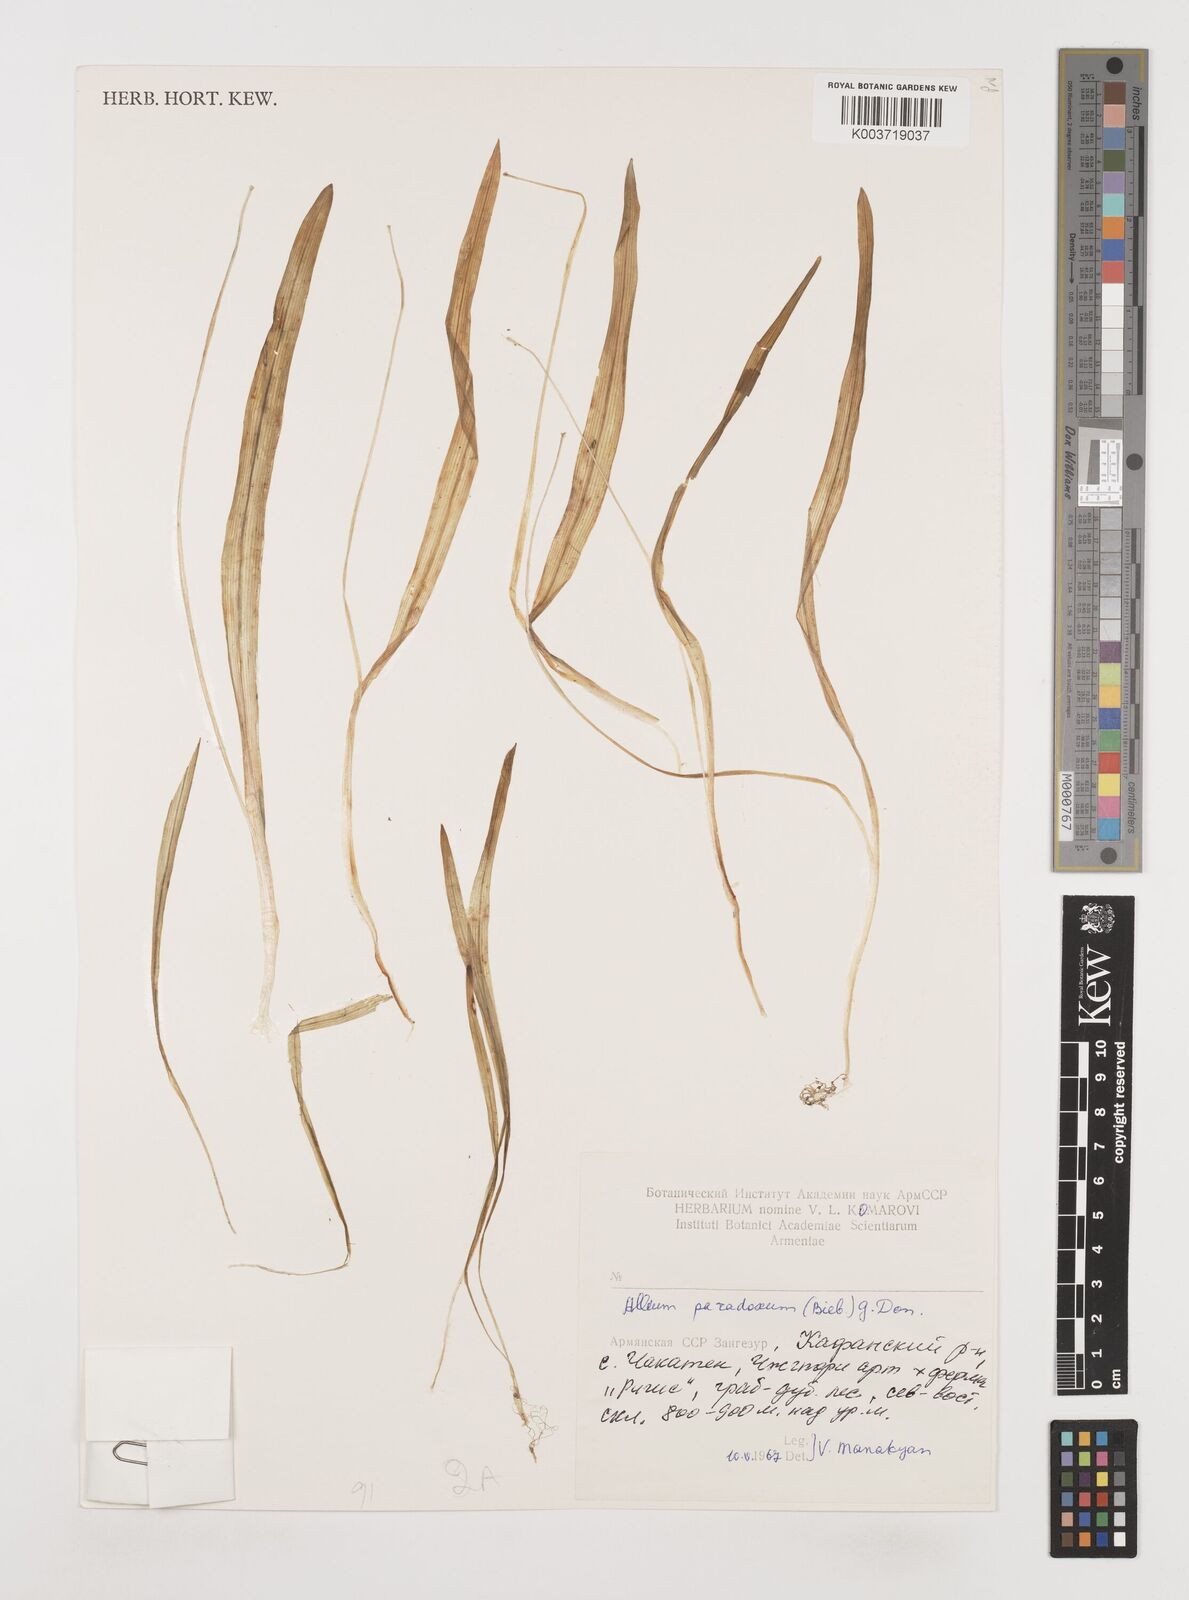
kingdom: Plantae
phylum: Tracheophyta
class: Liliopsida
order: Asparagales
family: Amaryllidaceae
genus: Allium
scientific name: Allium paradoxum
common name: Few-flowered garlic
